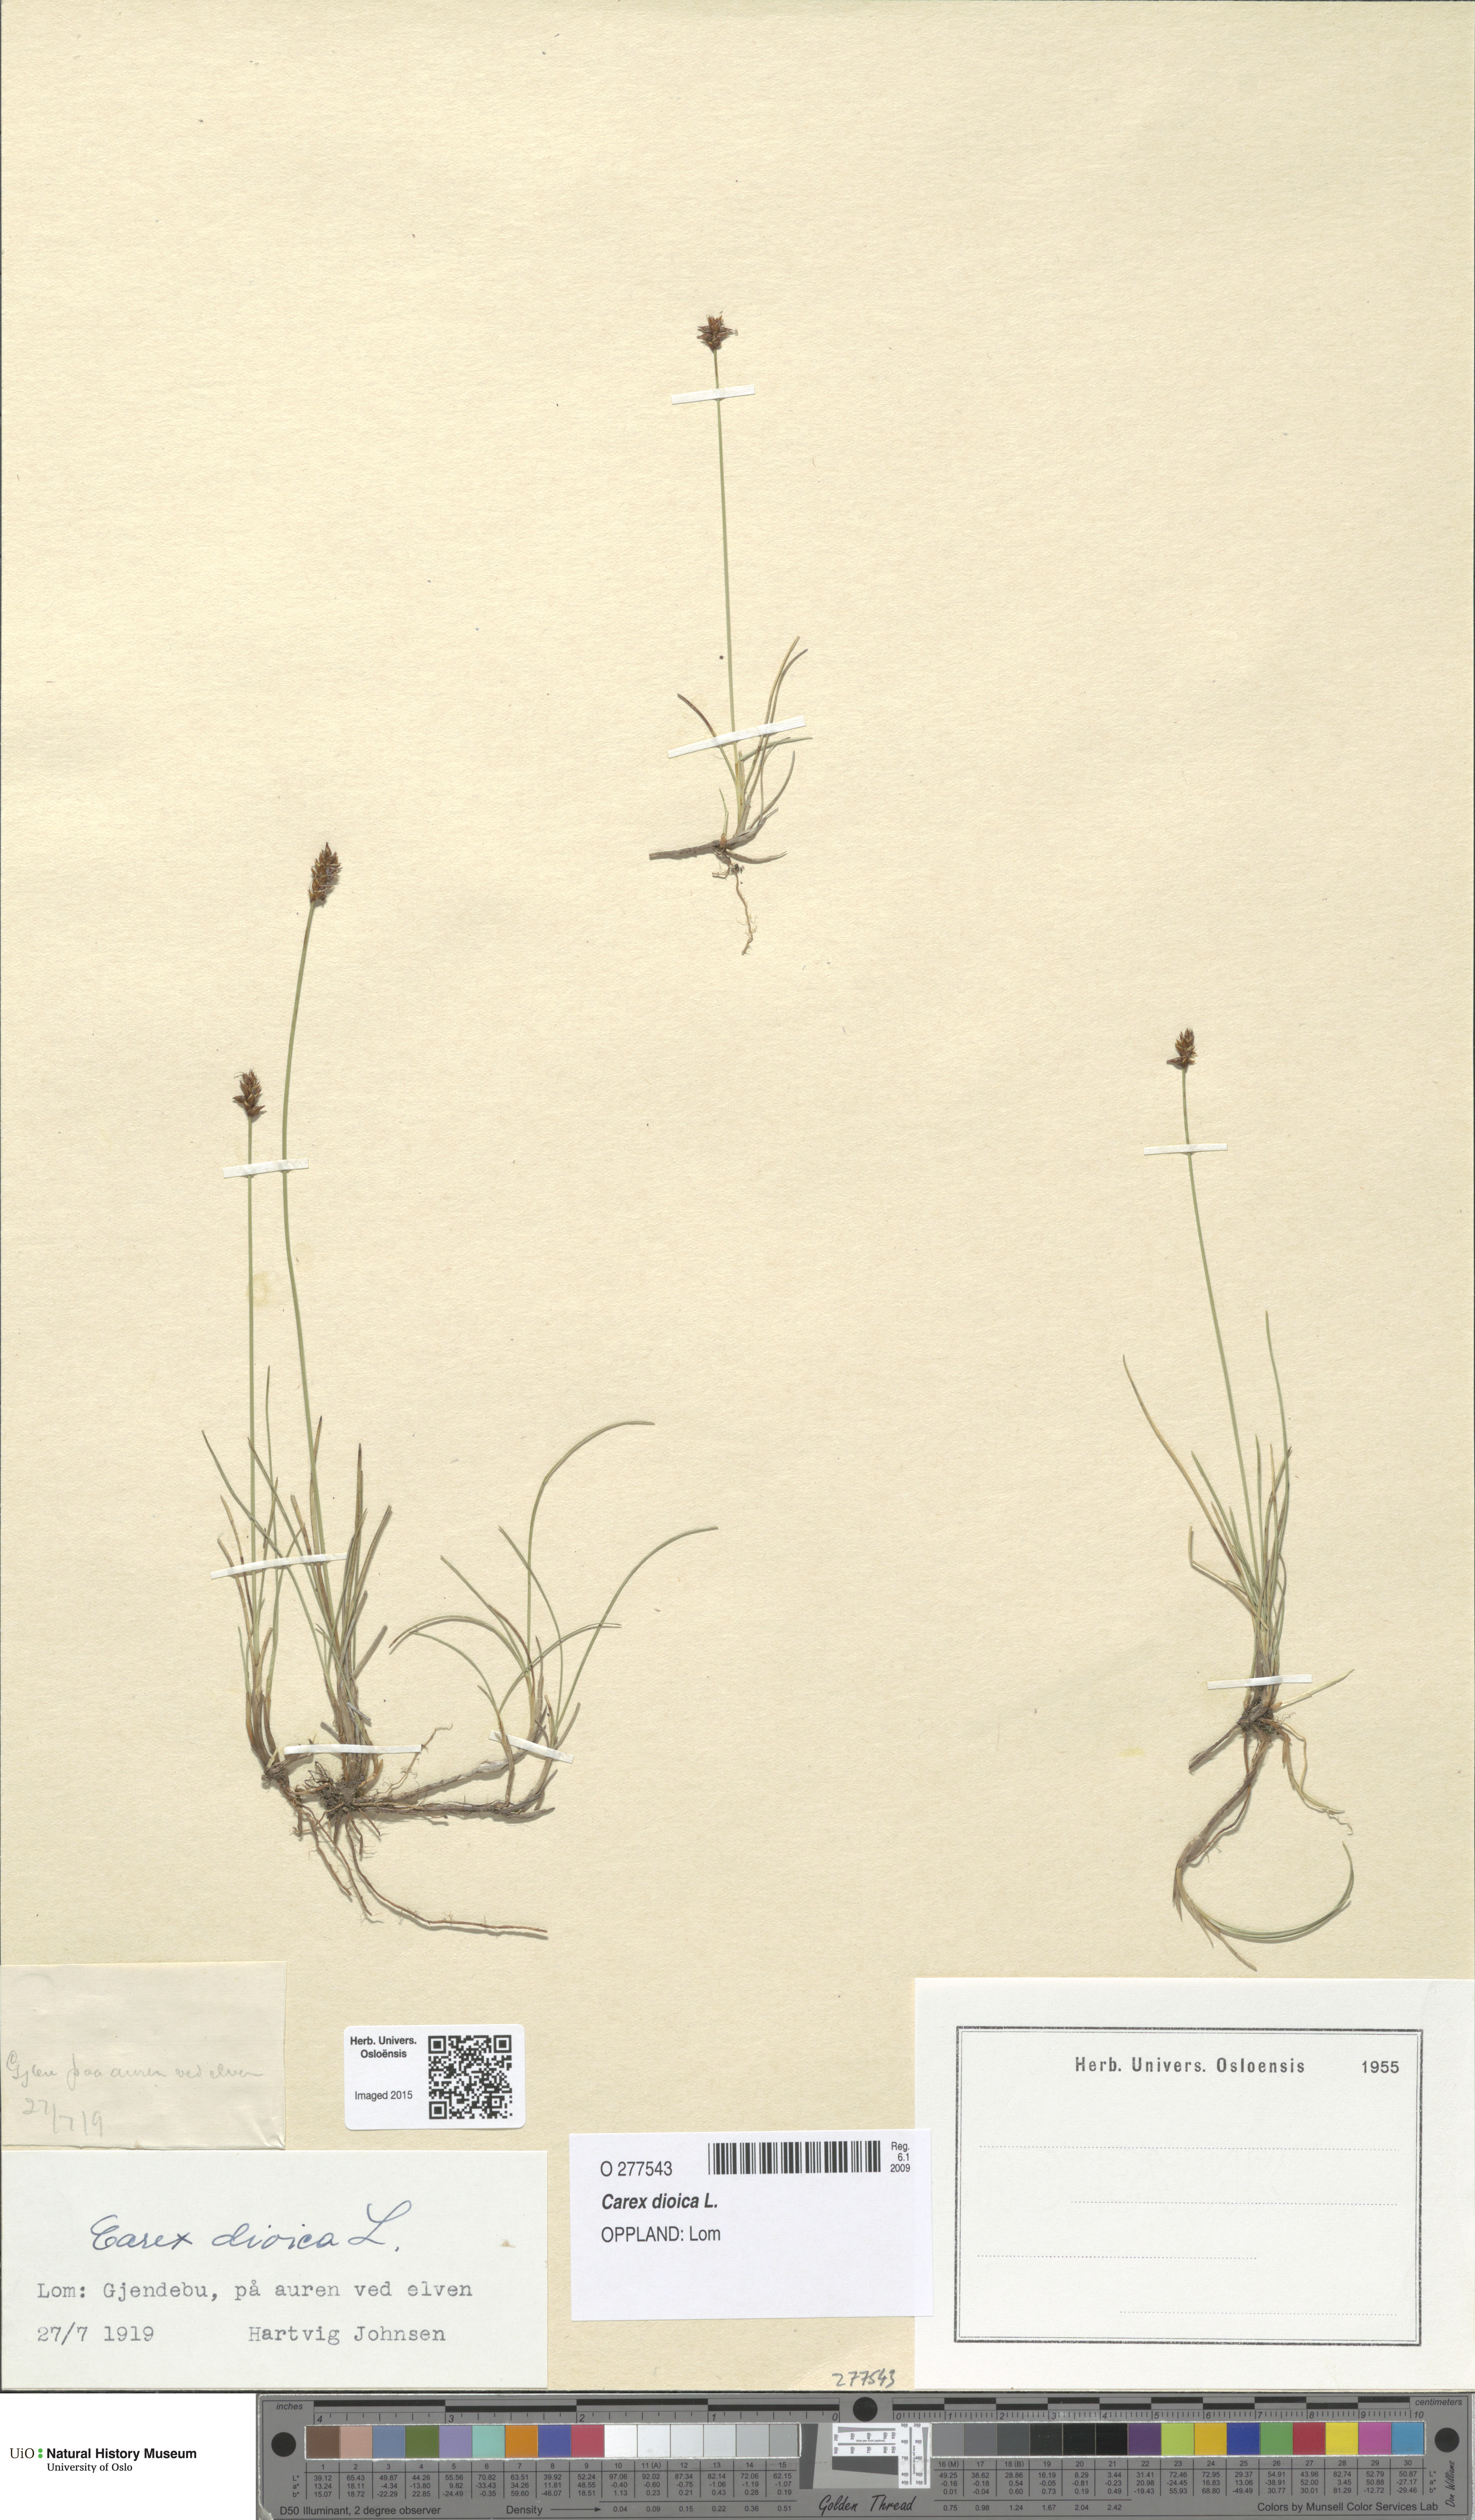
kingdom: Plantae
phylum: Tracheophyta
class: Liliopsida
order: Poales
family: Cyperaceae
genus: Carex
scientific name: Carex dioica
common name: Dioecious sedge
